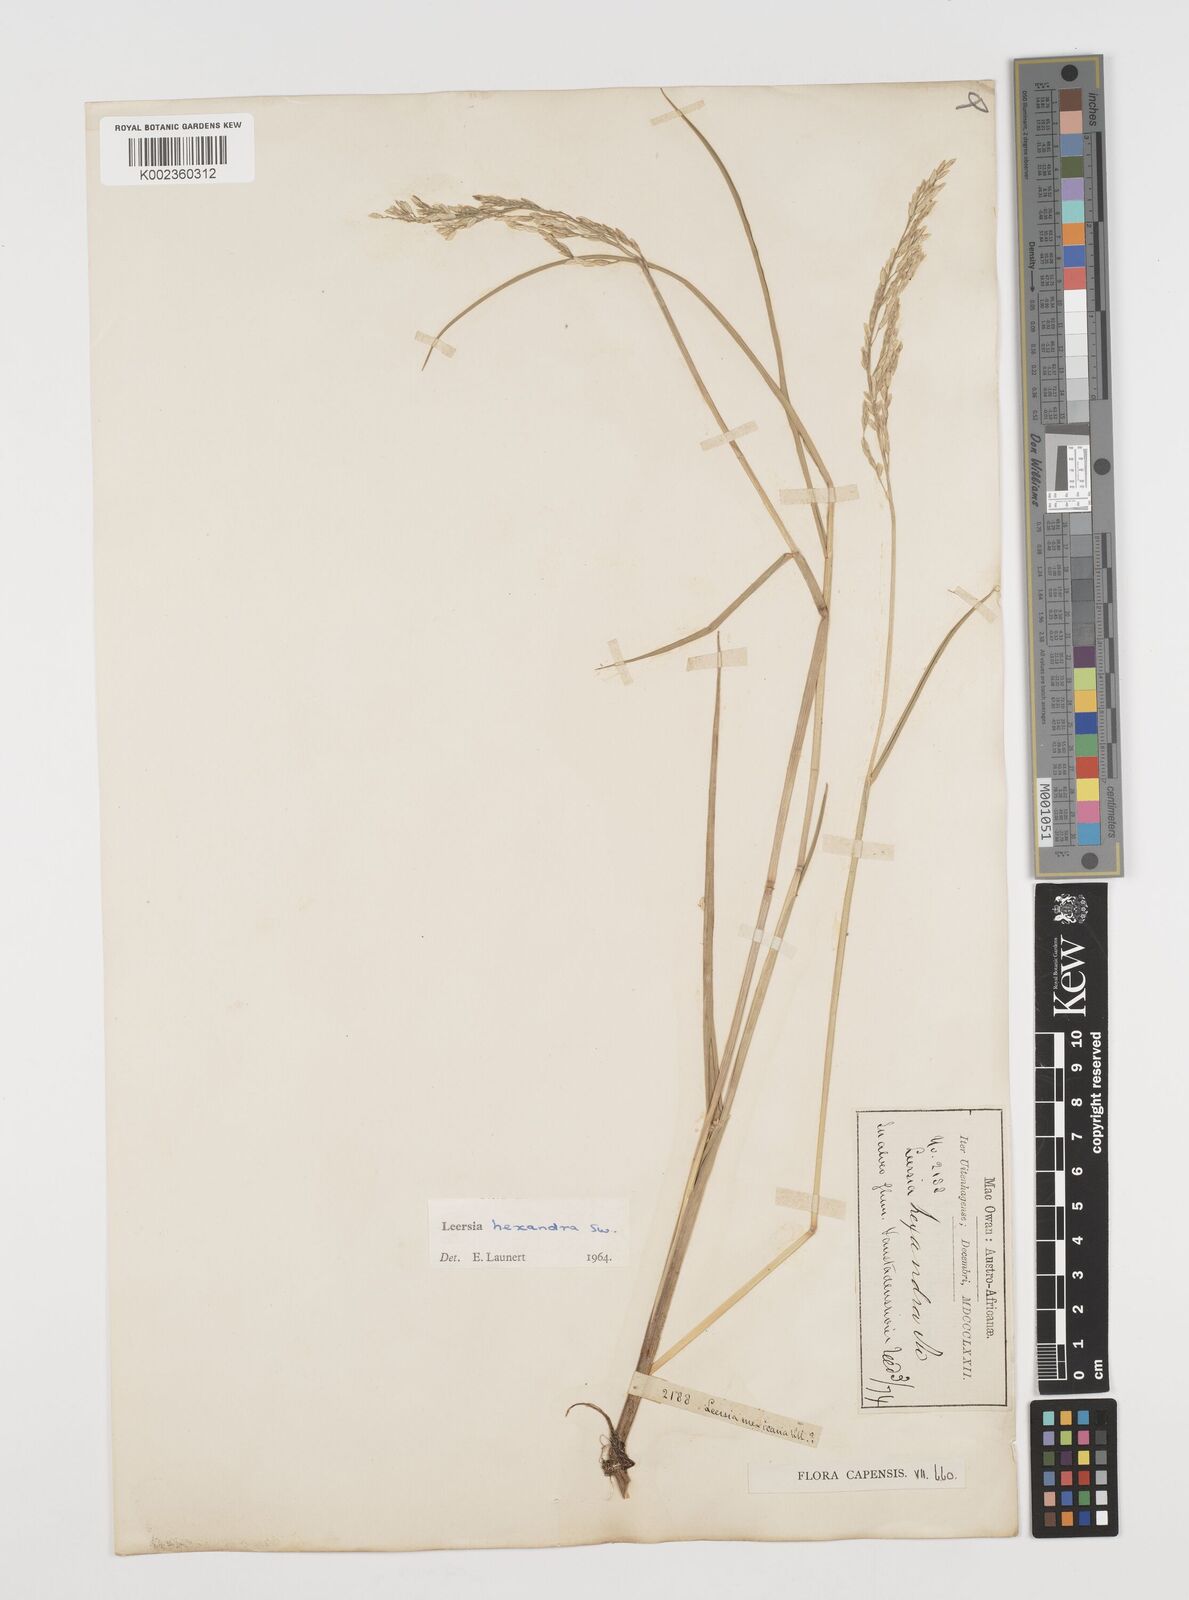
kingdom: Plantae
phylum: Tracheophyta
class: Liliopsida
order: Poales
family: Poaceae
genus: Leersia
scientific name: Leersia hexandra
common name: Southern cut grass
